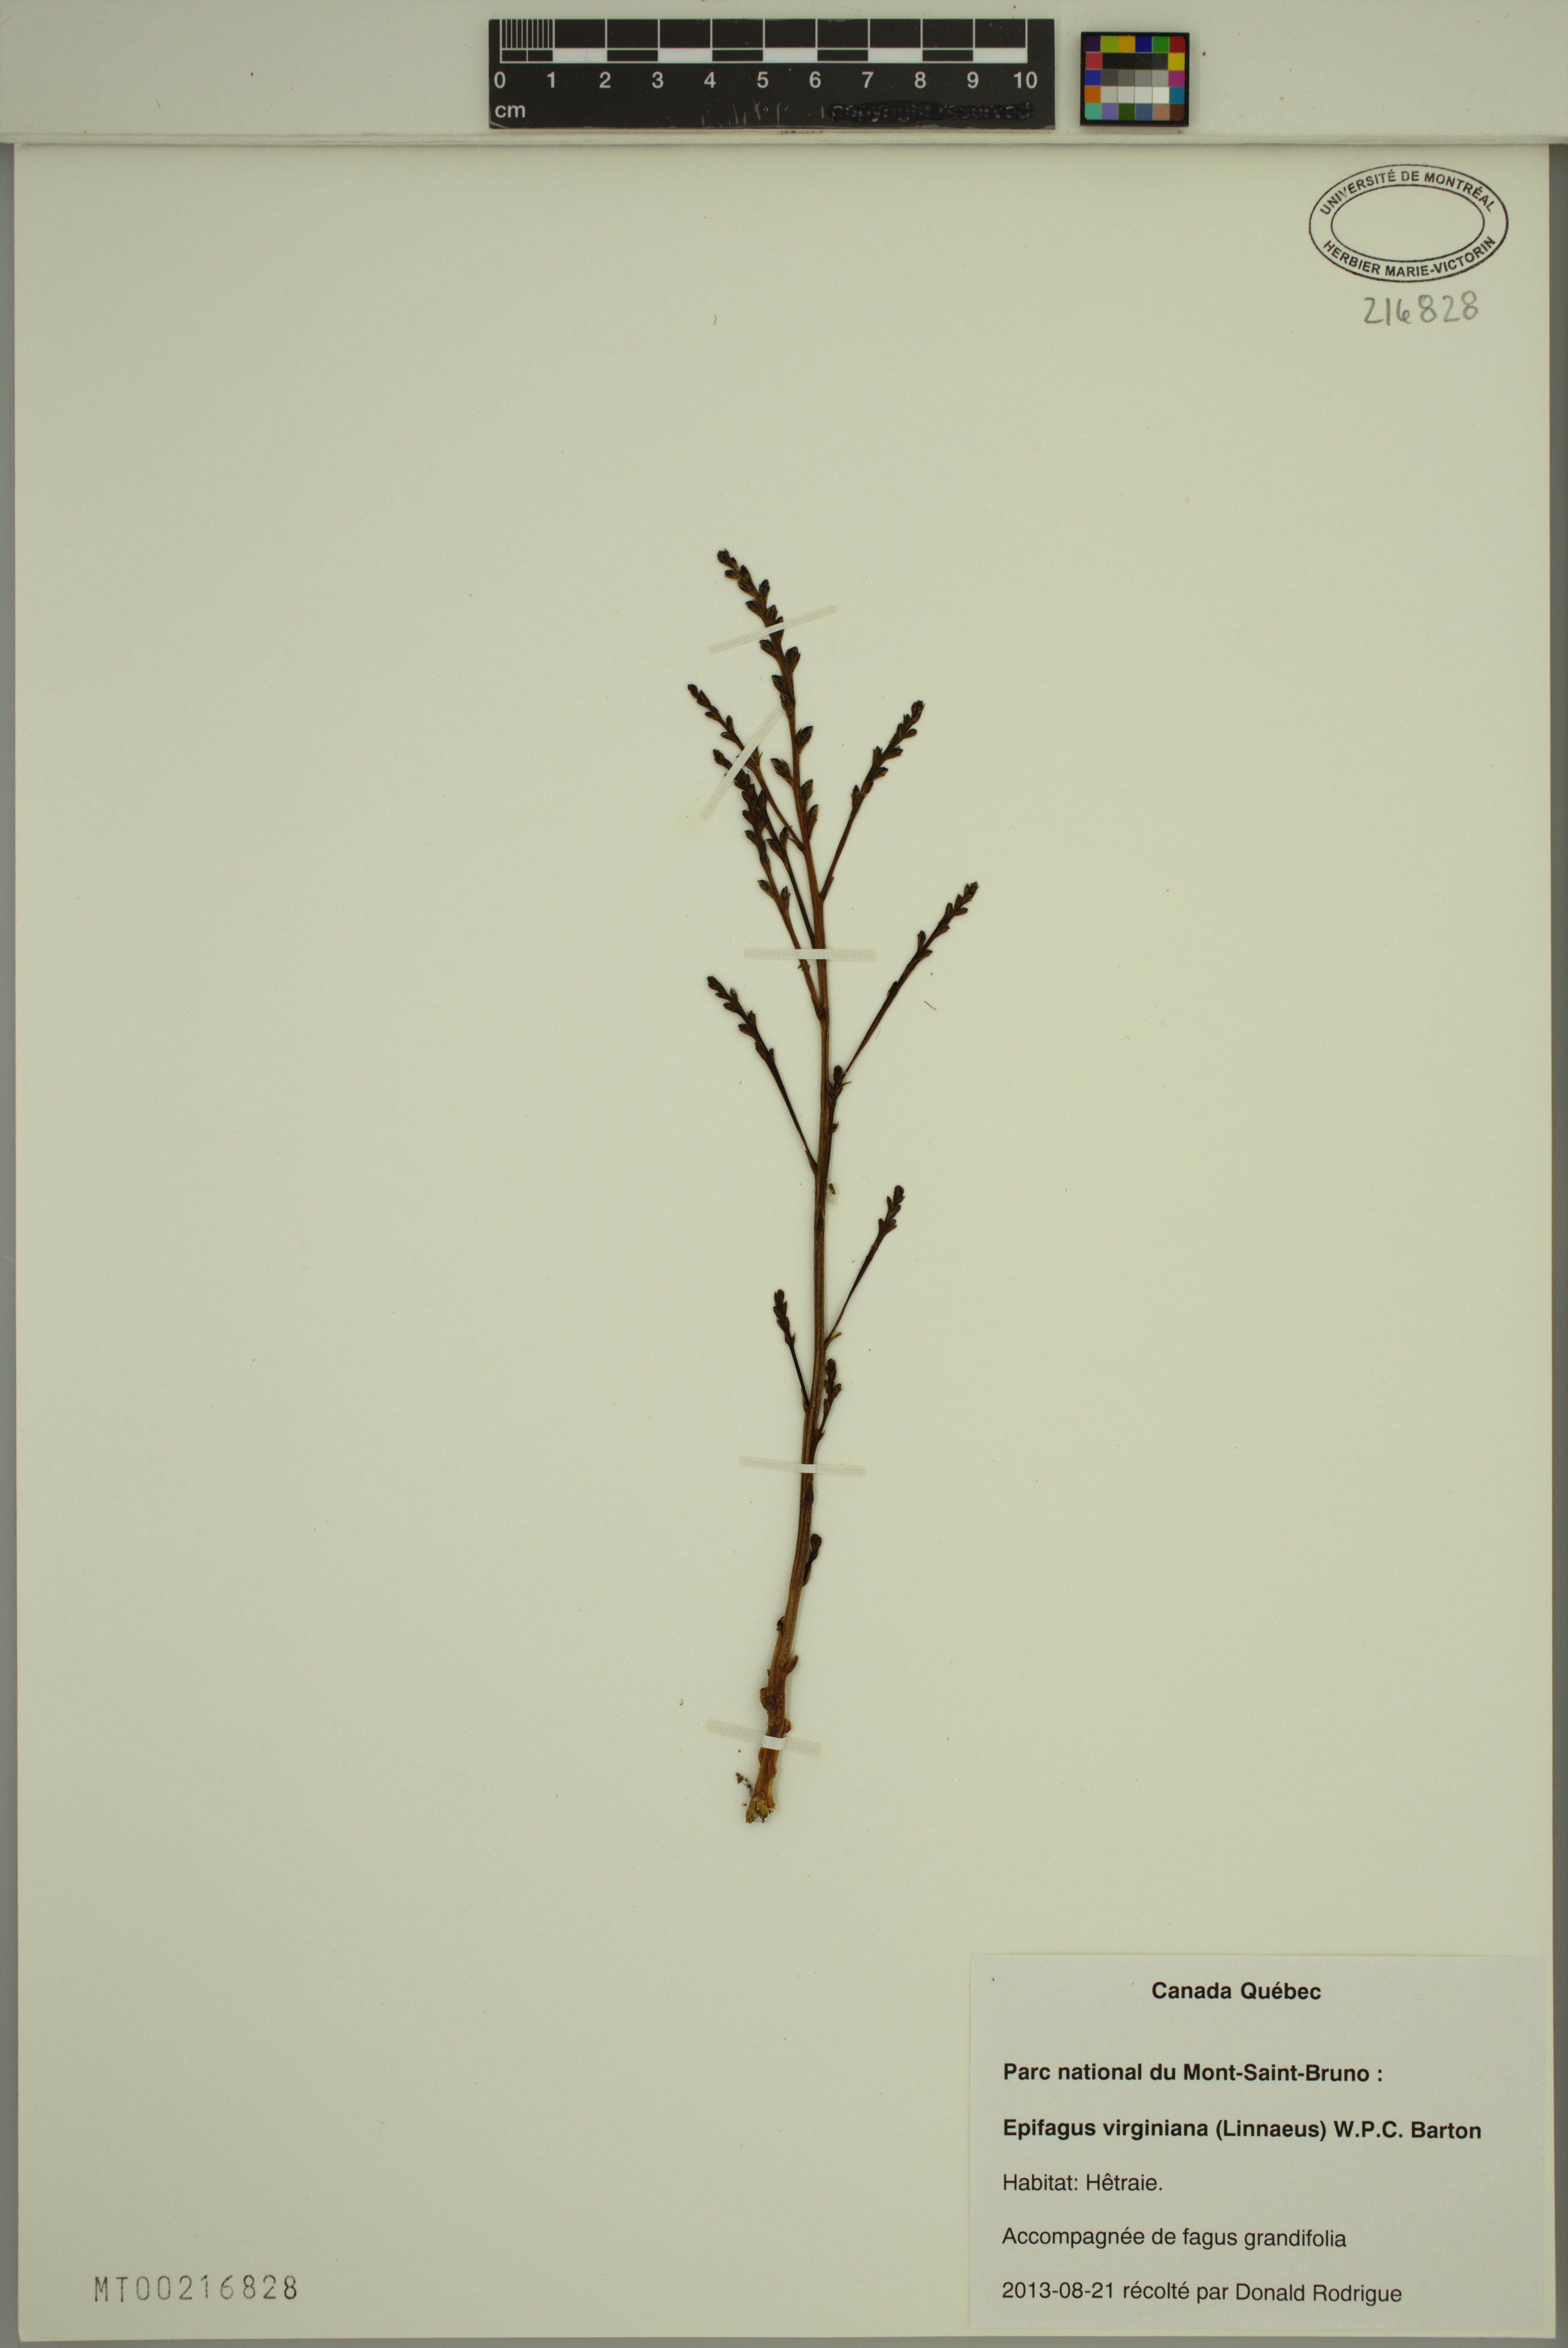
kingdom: Plantae
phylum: Tracheophyta
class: Magnoliopsida
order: Lamiales
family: Orobanchaceae
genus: Epifagus
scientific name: Epifagus virginiana
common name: Beechdrops
